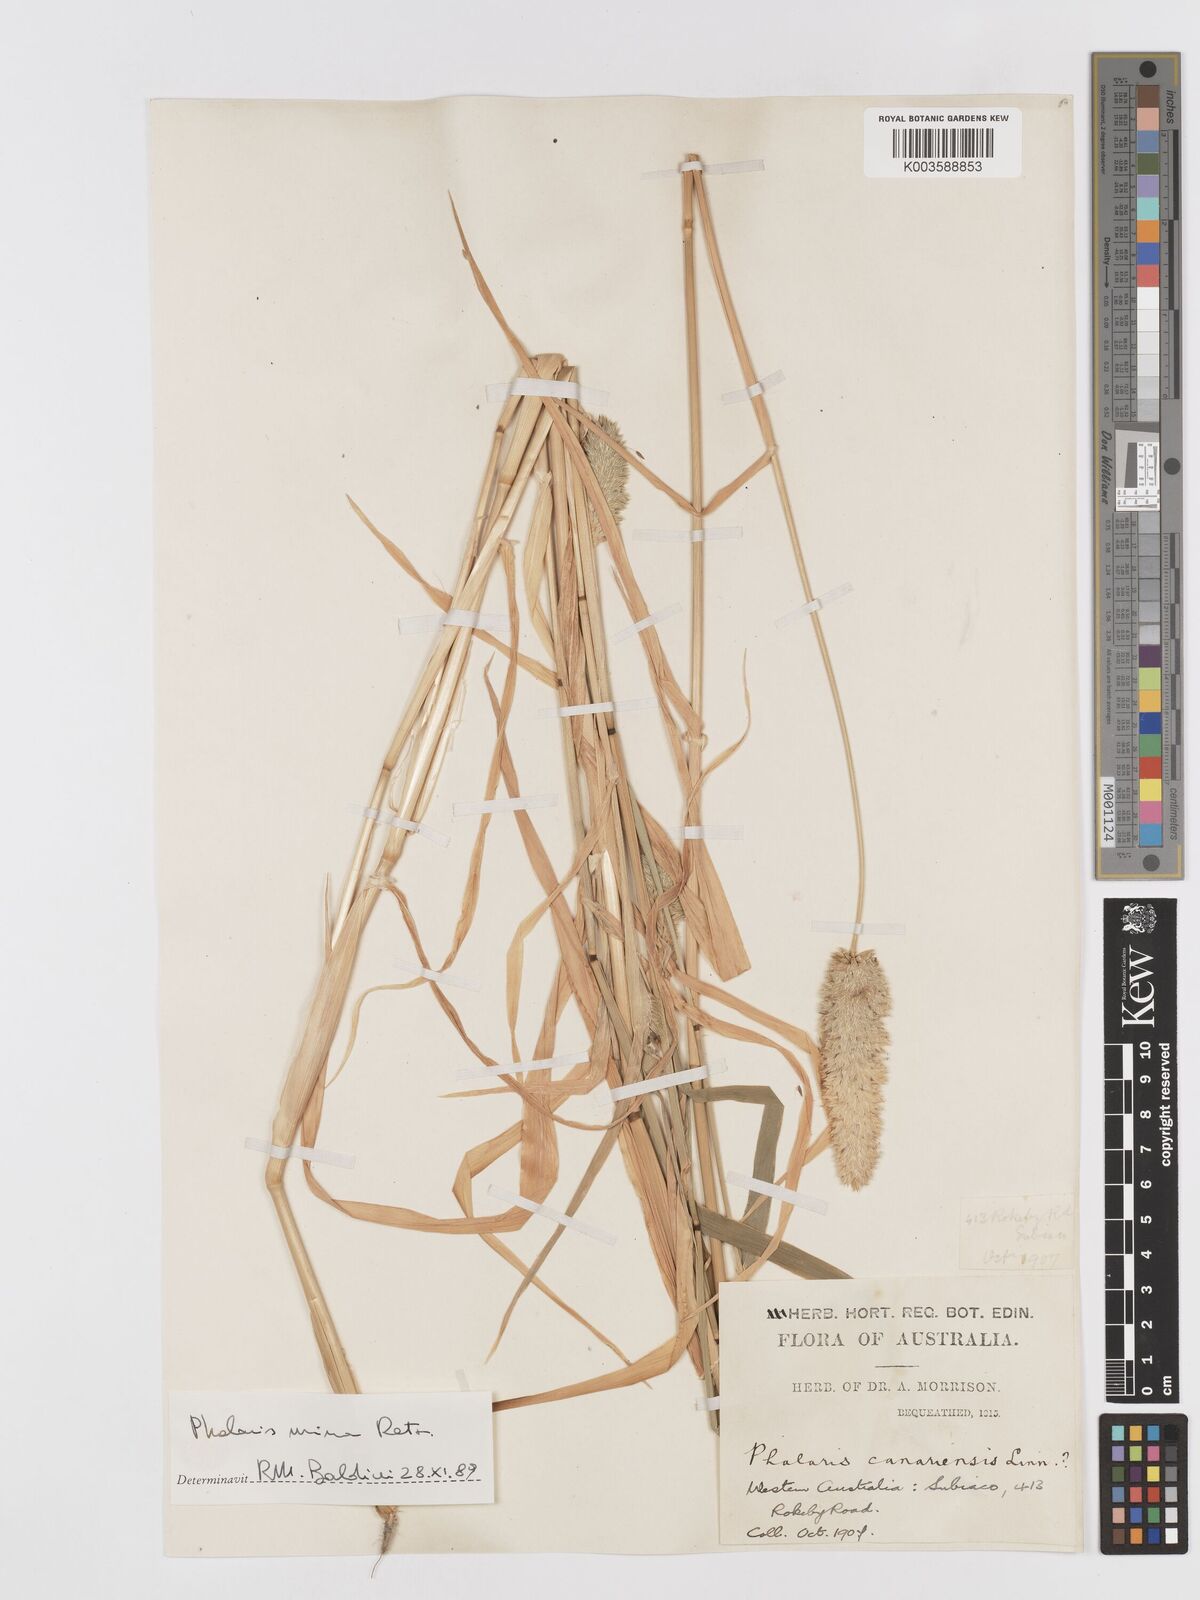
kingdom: Plantae
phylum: Tracheophyta
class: Liliopsida
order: Poales
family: Poaceae
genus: Phalaris
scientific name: Phalaris minor
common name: Littleseed canarygrass
